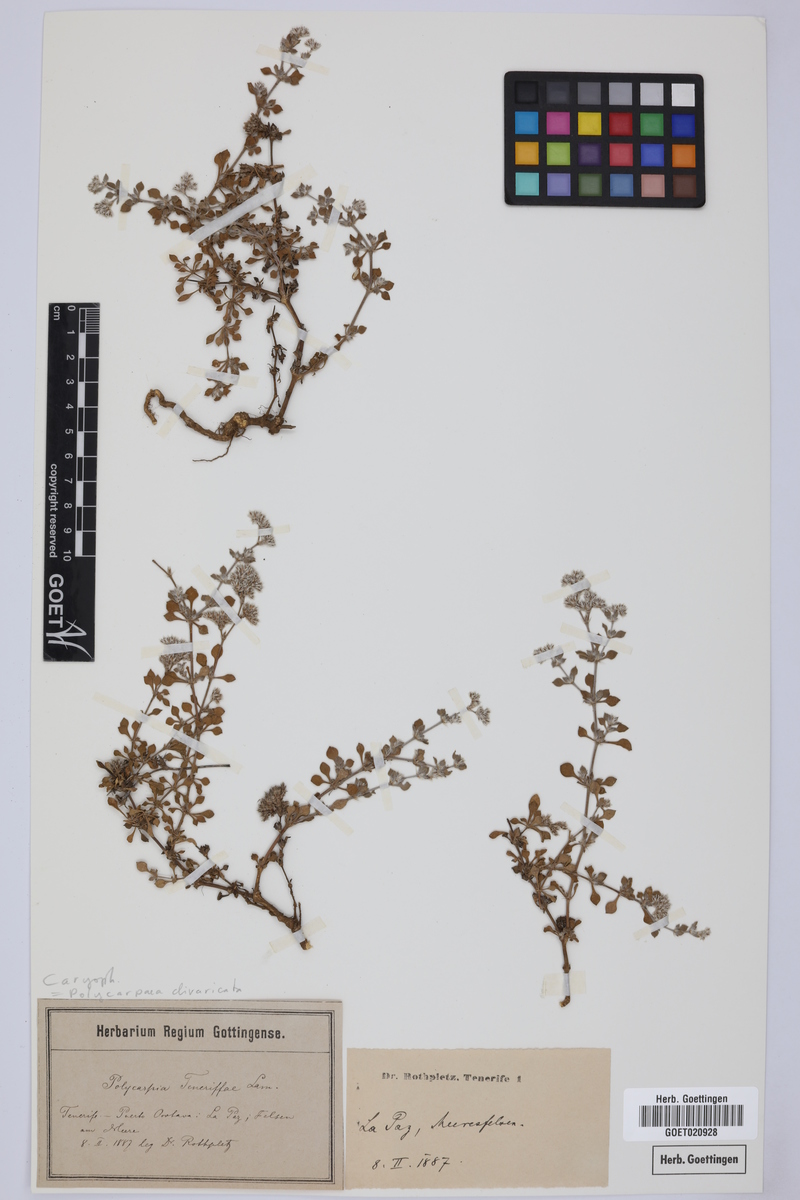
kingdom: Plantae
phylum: Tracheophyta
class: Magnoliopsida
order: Caryophyllales
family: Caryophyllaceae
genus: Polycarpaea
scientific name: Polycarpaea divaricata
